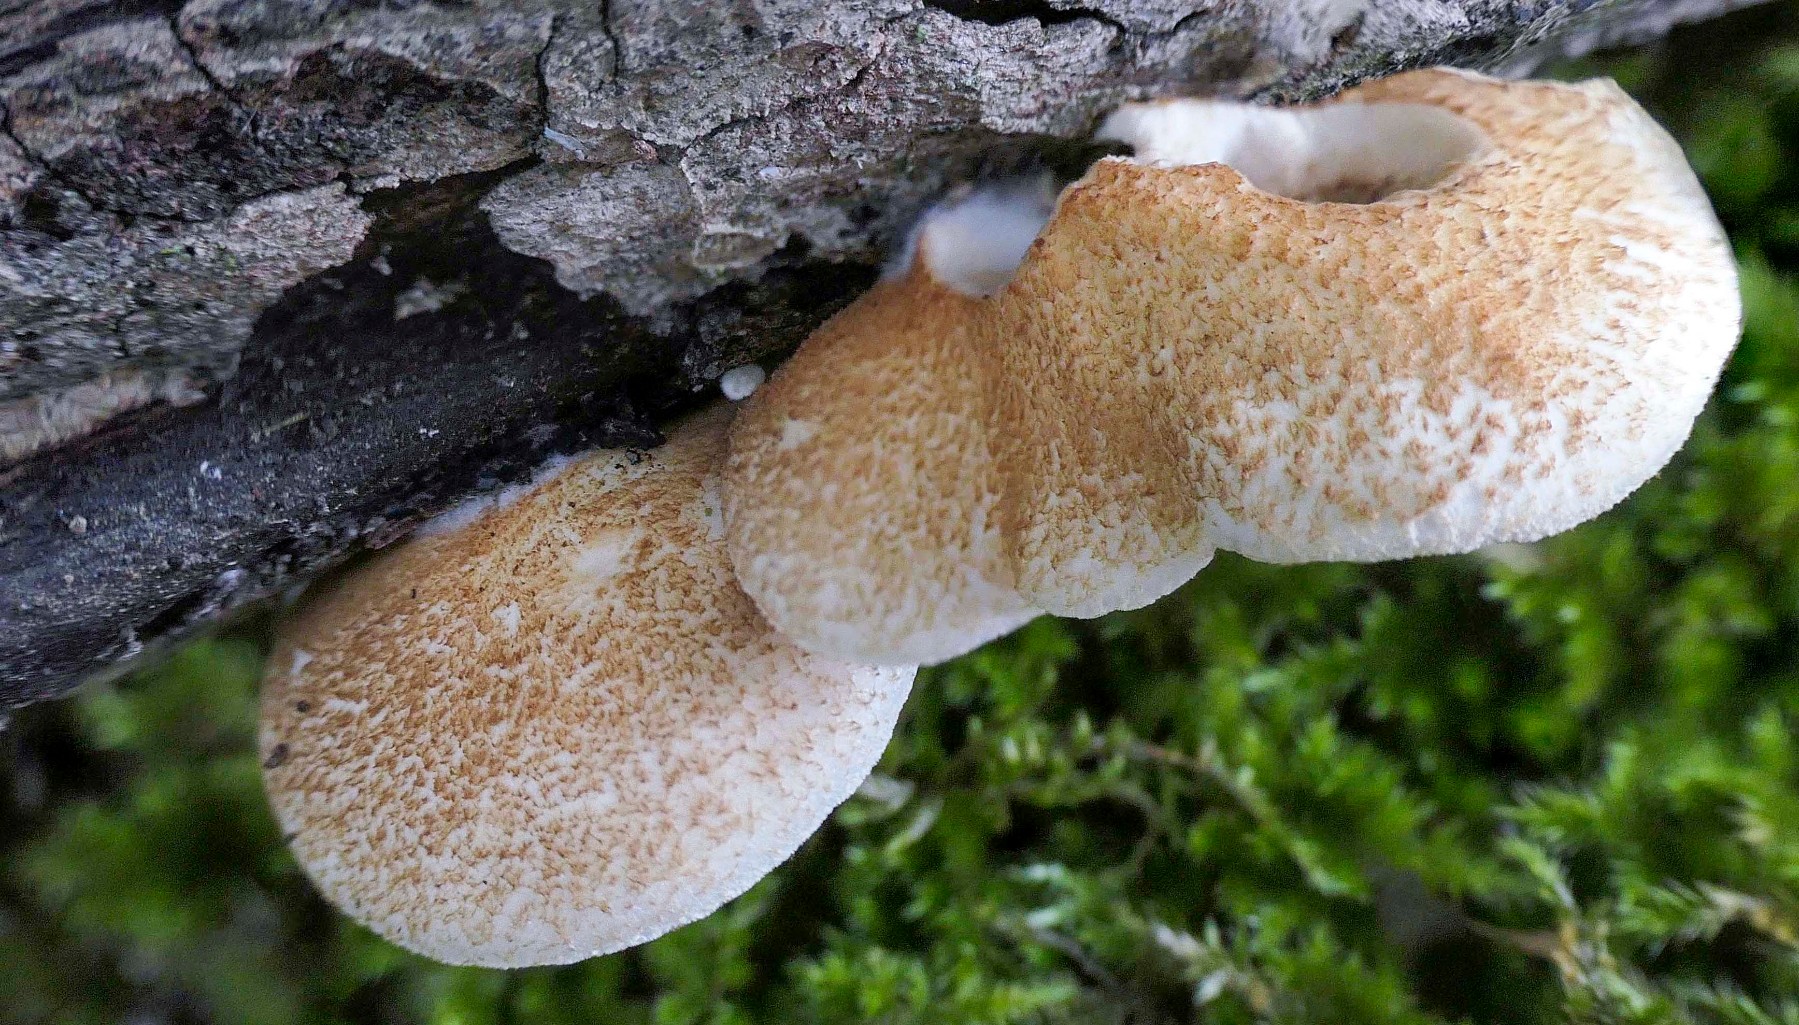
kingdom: Fungi
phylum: Basidiomycota
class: Agaricomycetes
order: Agaricales
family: Crepidotaceae
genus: Crepidotus
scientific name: Crepidotus calolepis
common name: småskællet muslingesvamp
